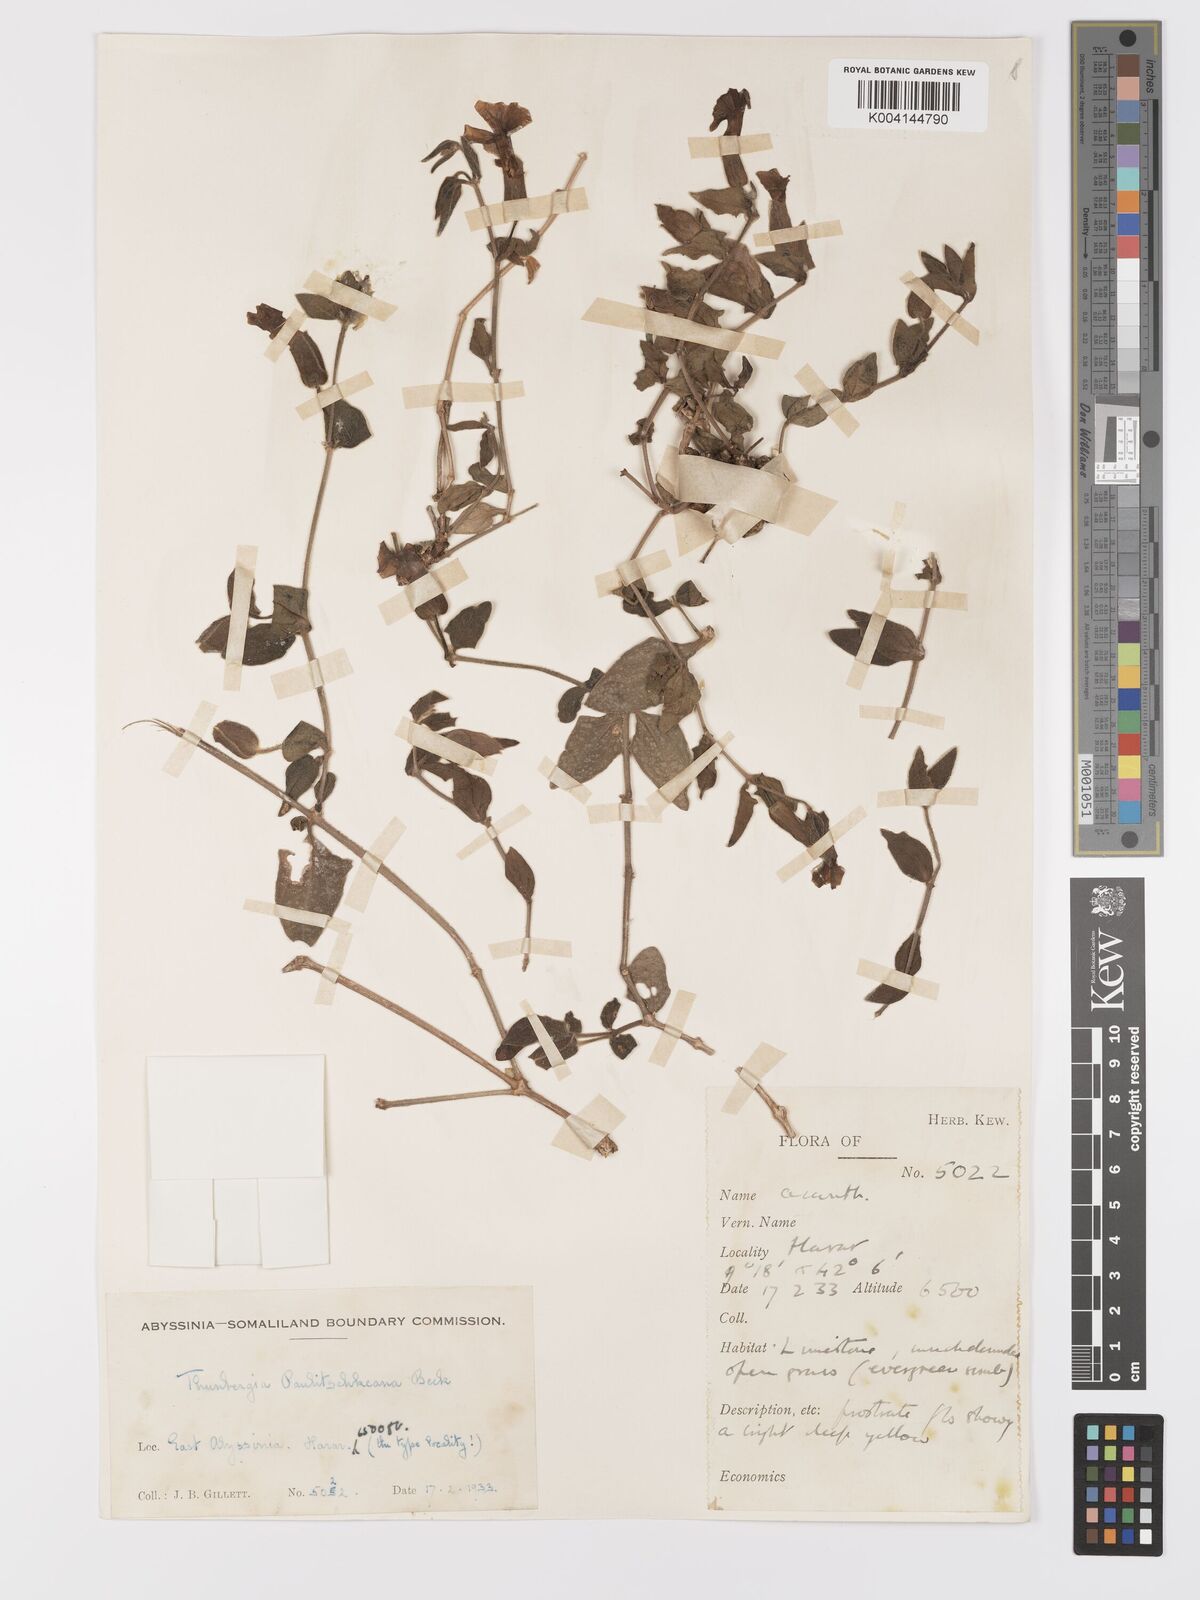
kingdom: Plantae
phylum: Tracheophyta
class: Magnoliopsida
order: Lamiales
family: Acanthaceae
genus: Thunbergia
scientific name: Thunbergia paulitschkeana
